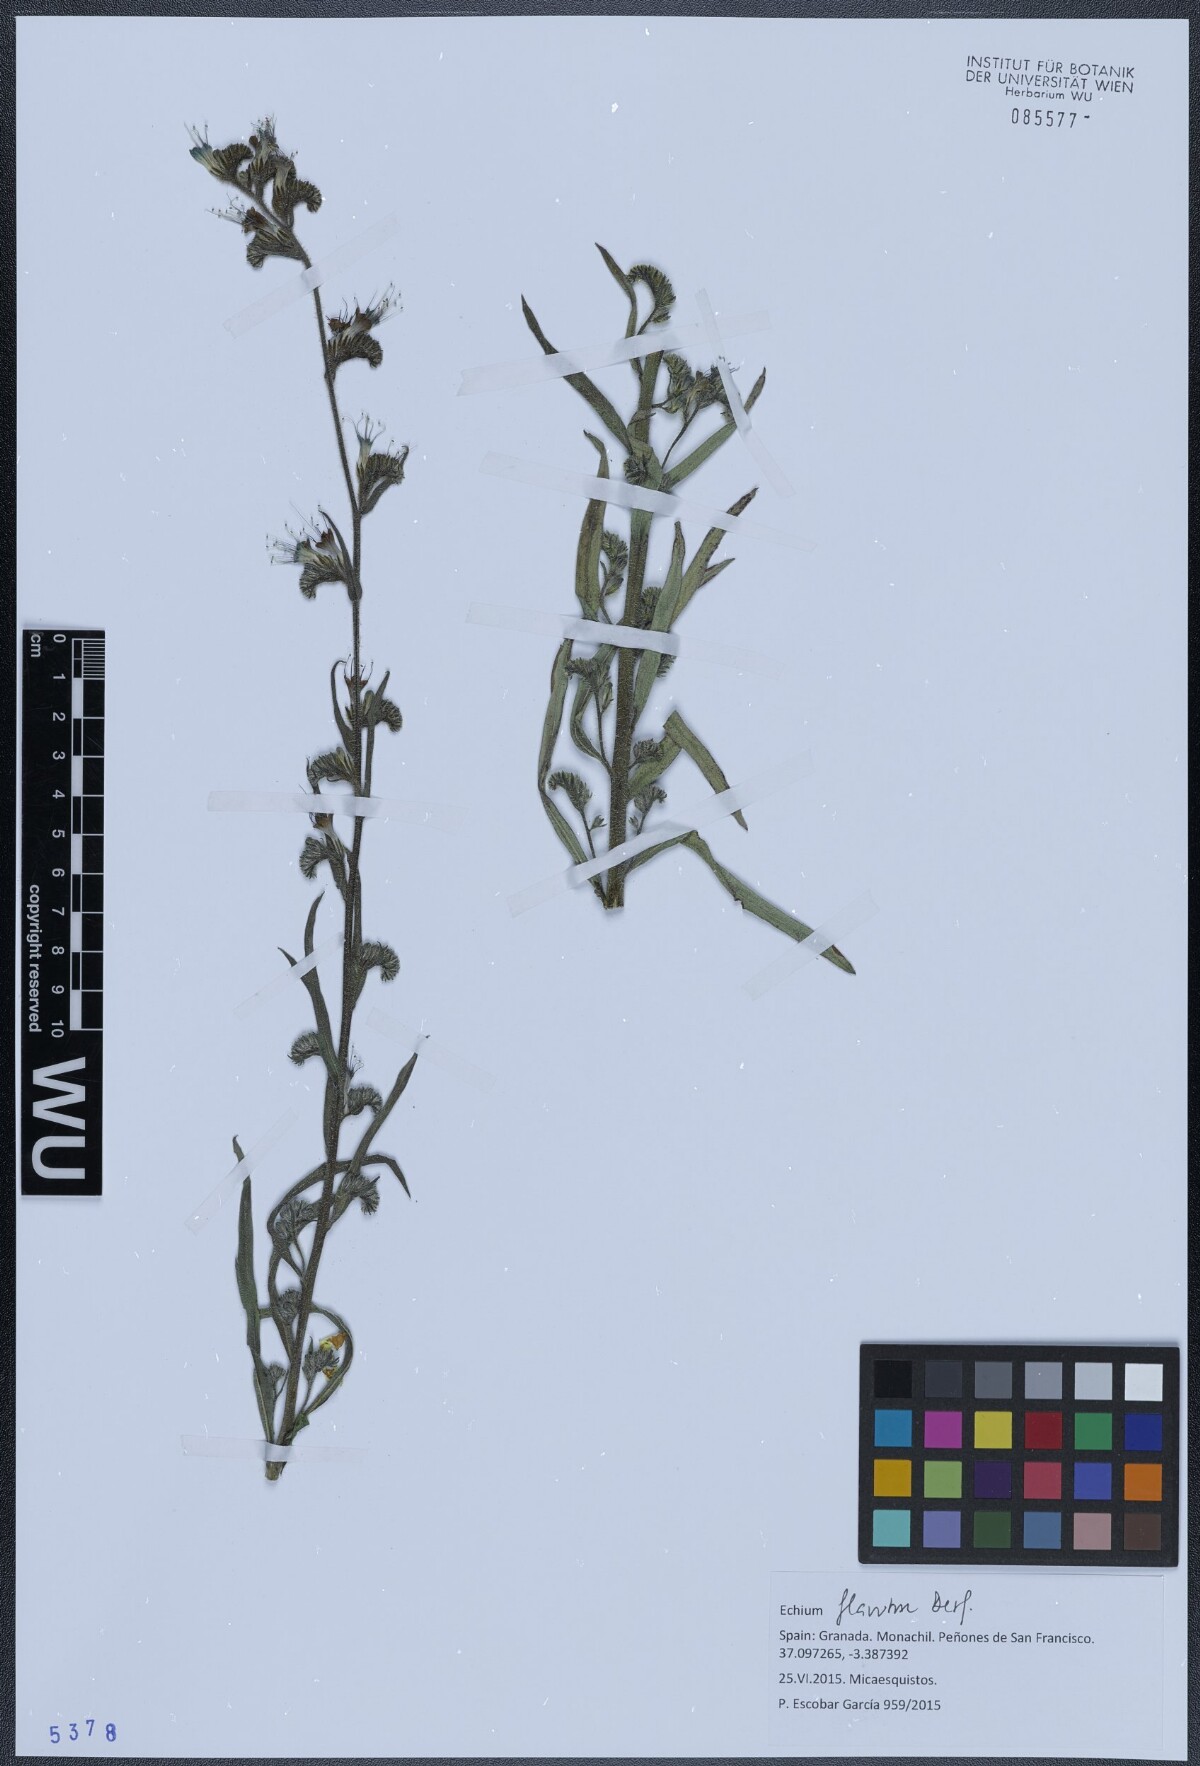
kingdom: Plantae
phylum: Tracheophyta
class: Magnoliopsida
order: Boraginales
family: Boraginaceae
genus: Echium
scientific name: Echium flavum
